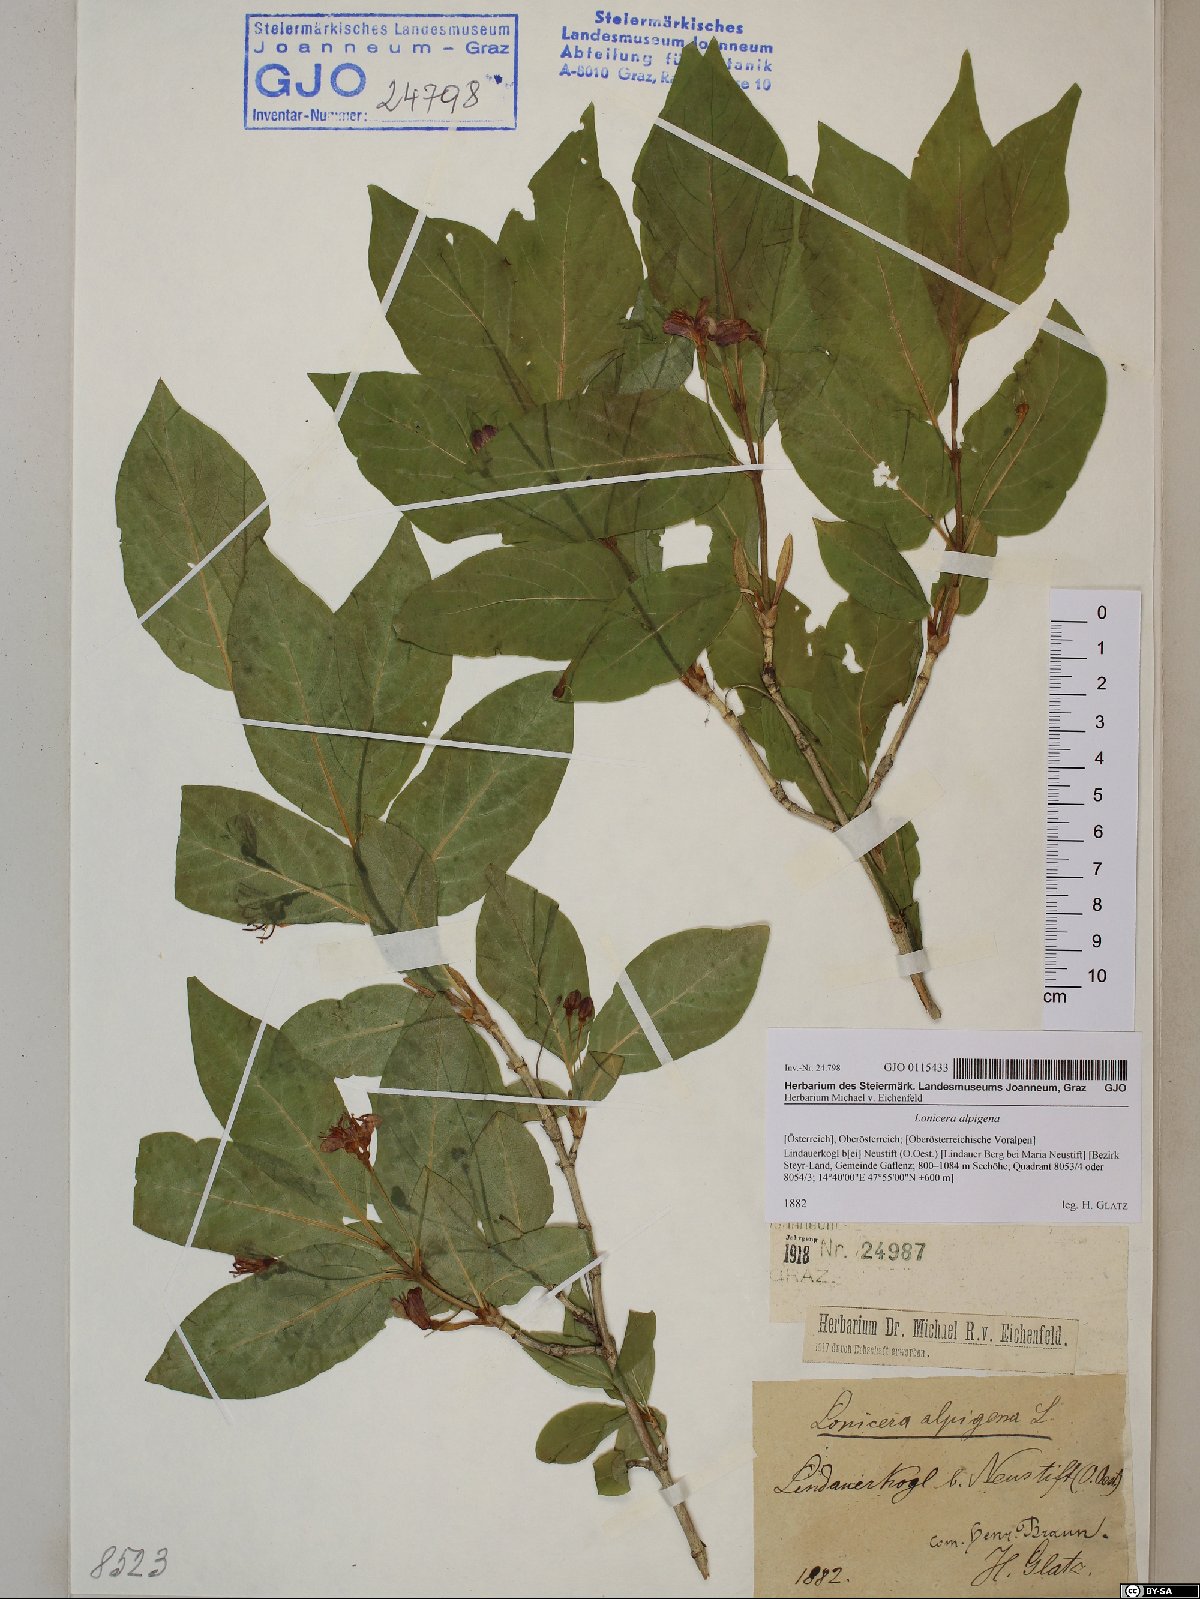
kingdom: Plantae
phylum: Tracheophyta
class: Magnoliopsida
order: Dipsacales
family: Caprifoliaceae
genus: Lonicera
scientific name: Lonicera alpigena
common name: Alpine honeysuckle
